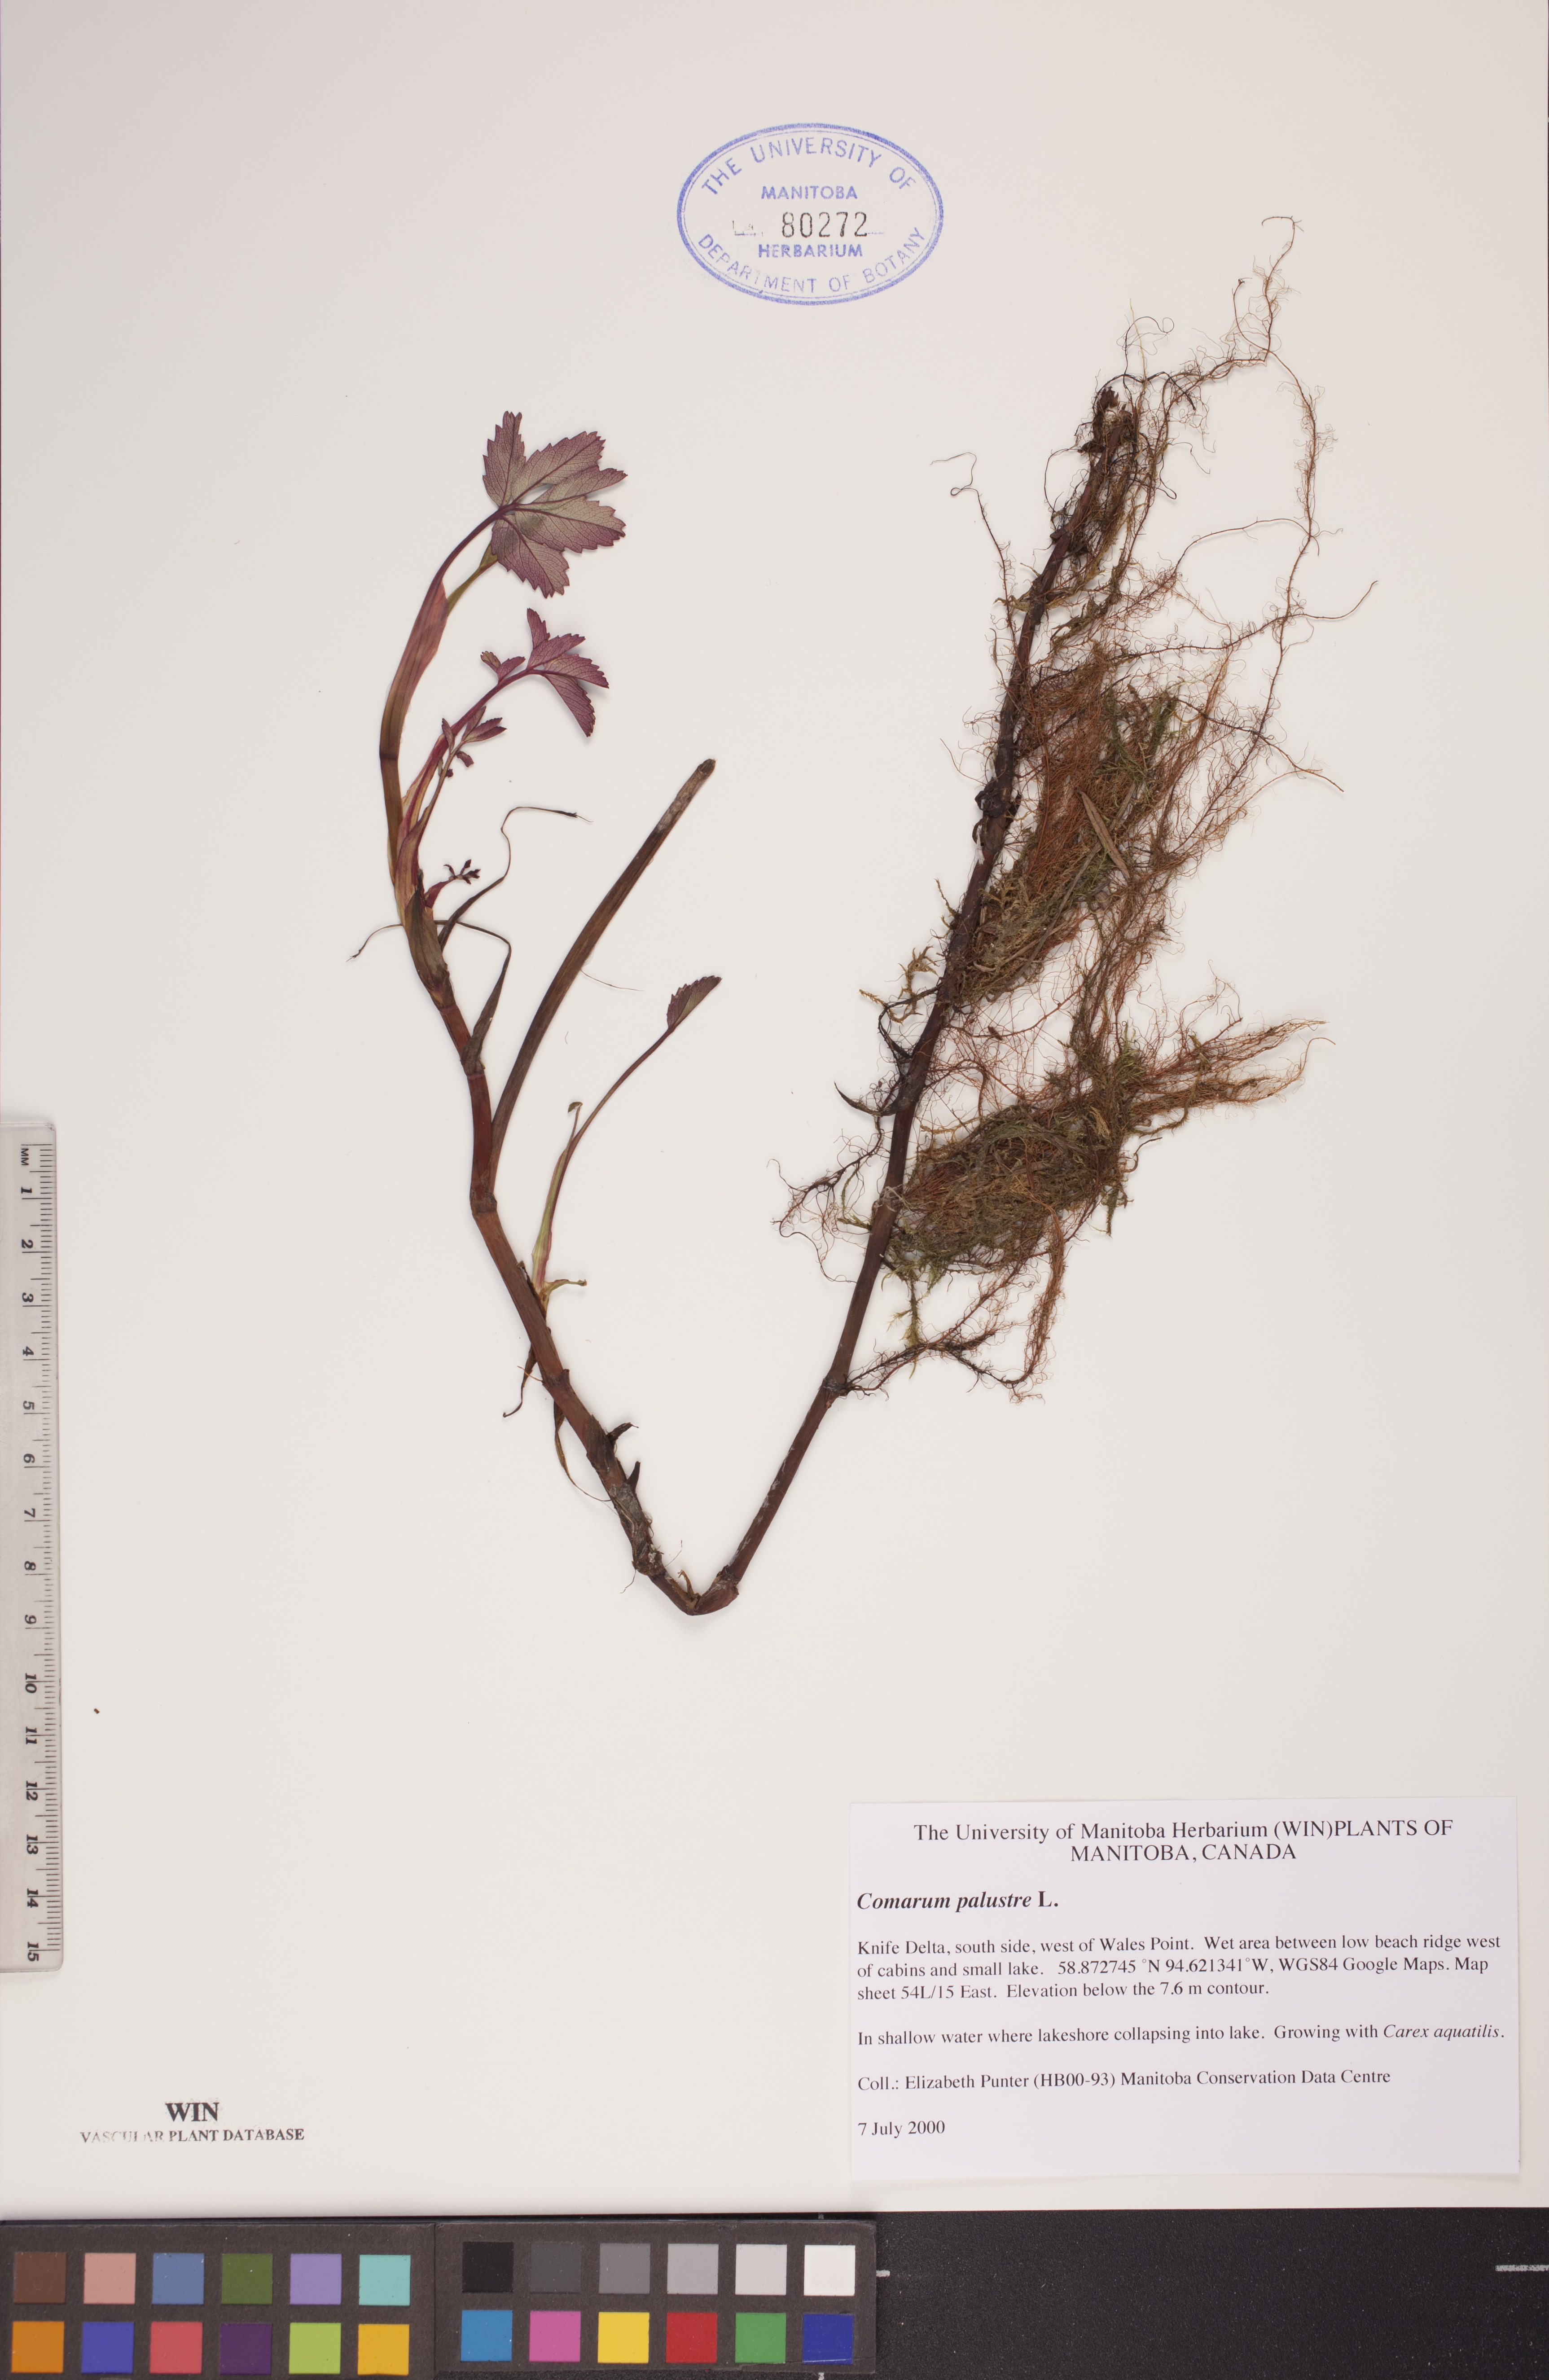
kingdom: Plantae
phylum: Tracheophyta
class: Magnoliopsida
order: Rosales
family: Rosaceae
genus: Comarum
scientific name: Comarum palustre
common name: Marsh cinquefoil
